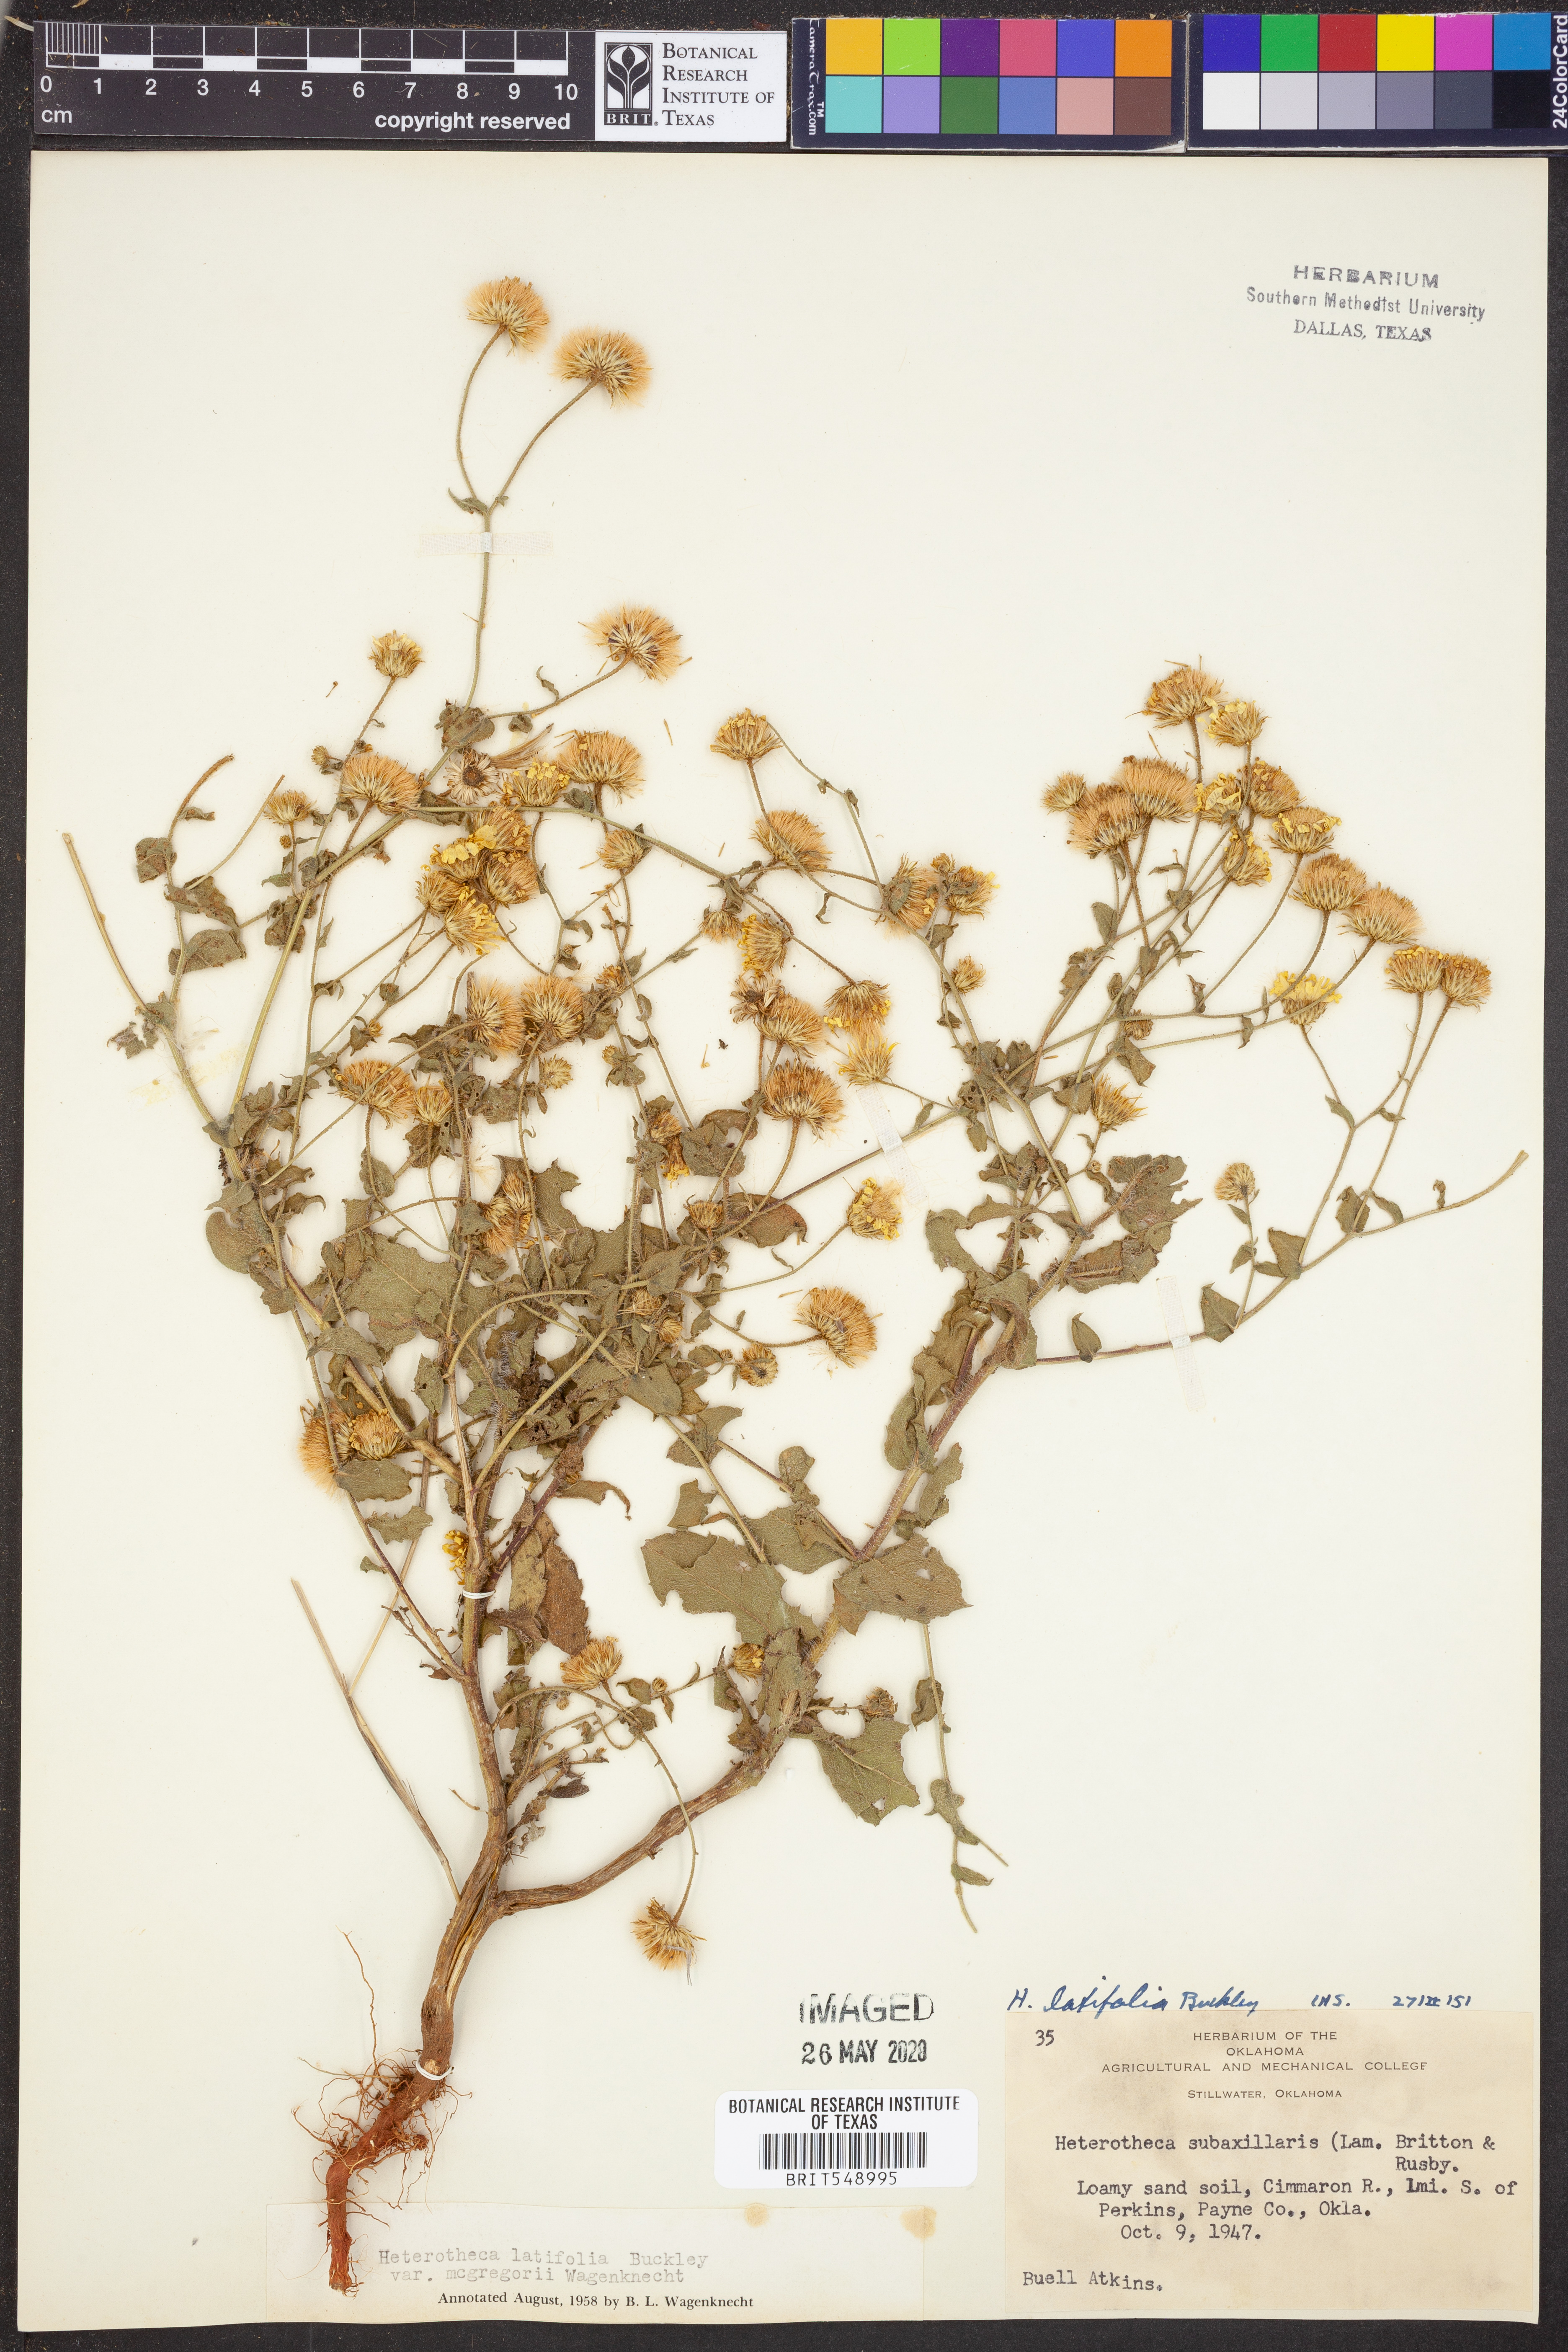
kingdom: Plantae
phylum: Tracheophyta
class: Magnoliopsida
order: Asterales
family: Asteraceae
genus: Heterotheca
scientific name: Heterotheca subaxillaris
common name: Camphorweed
